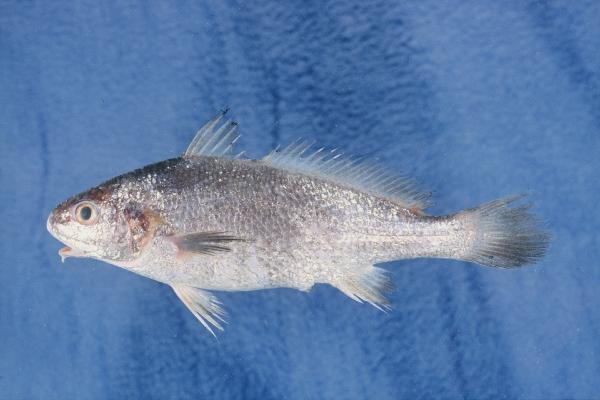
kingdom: Animalia
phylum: Chordata
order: Perciformes
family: Sciaenidae
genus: Johnius
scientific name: Johnius amblycephalus
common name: Bearded croaker
